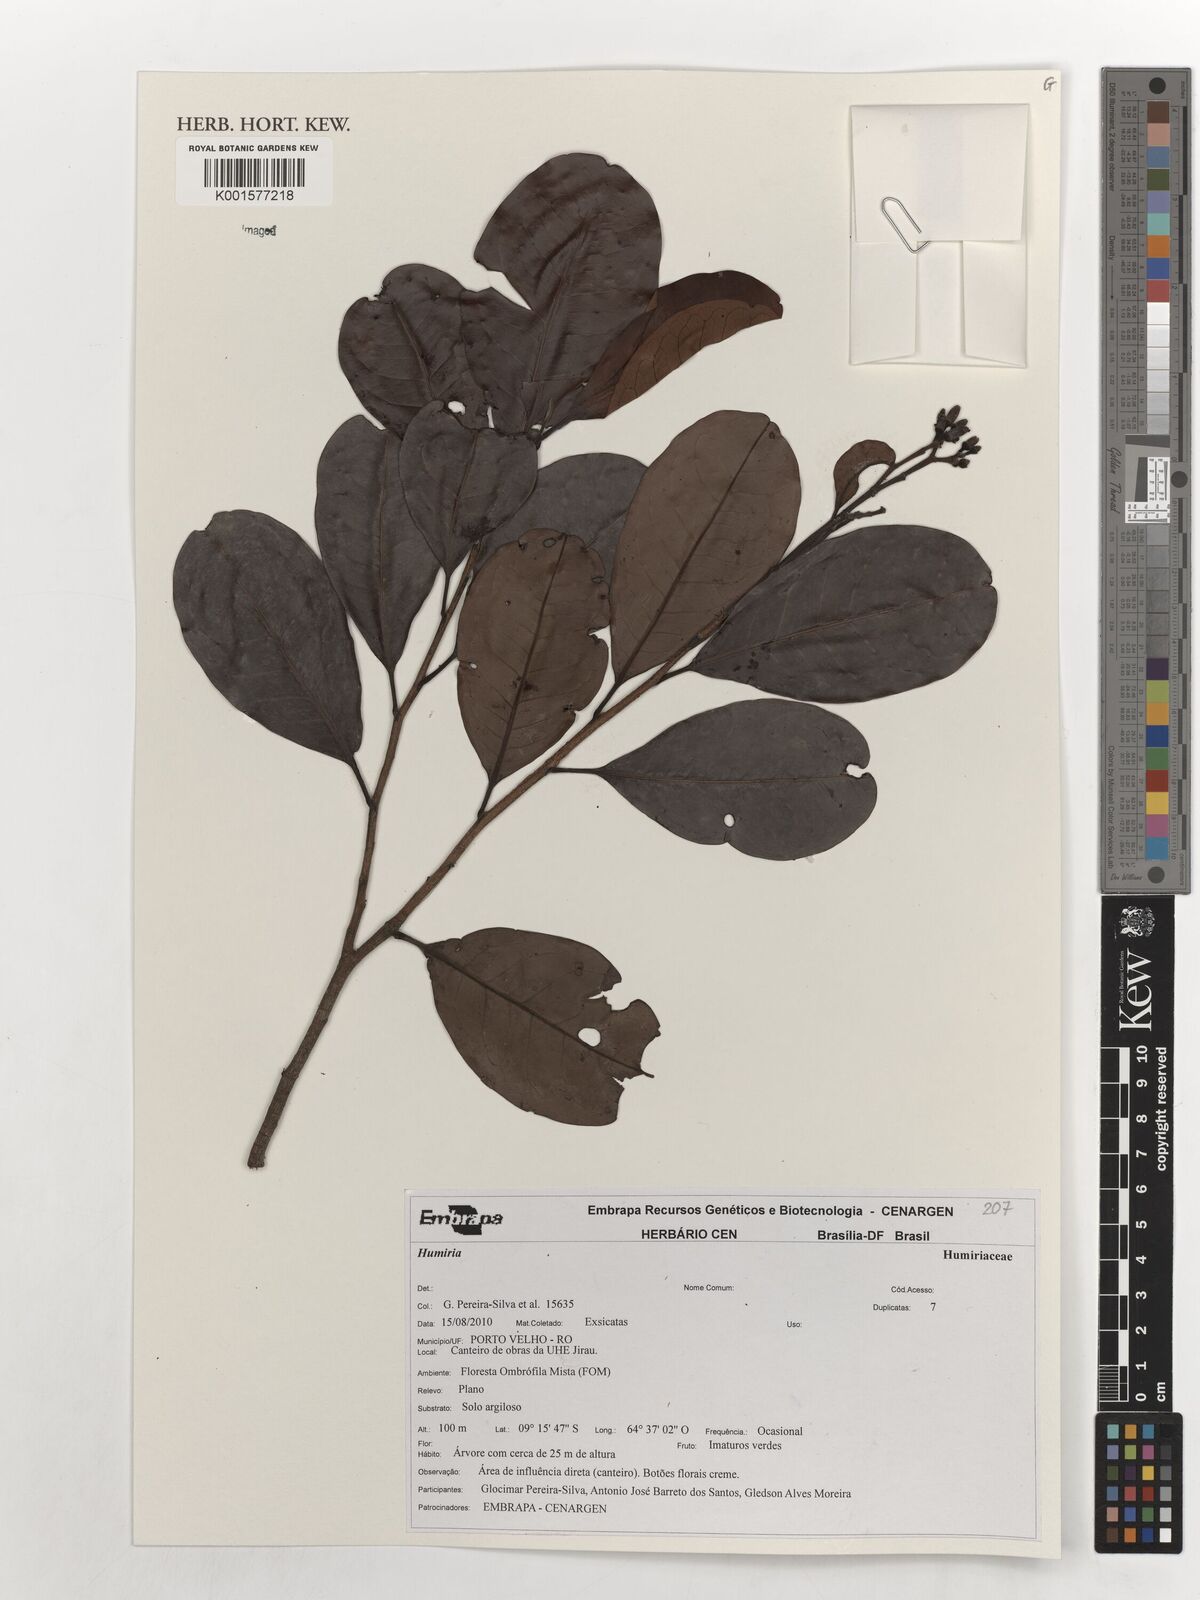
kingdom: Plantae
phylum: Tracheophyta
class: Magnoliopsida
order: Malpighiales
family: Humiriaceae
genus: Humiria
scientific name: Humiria
